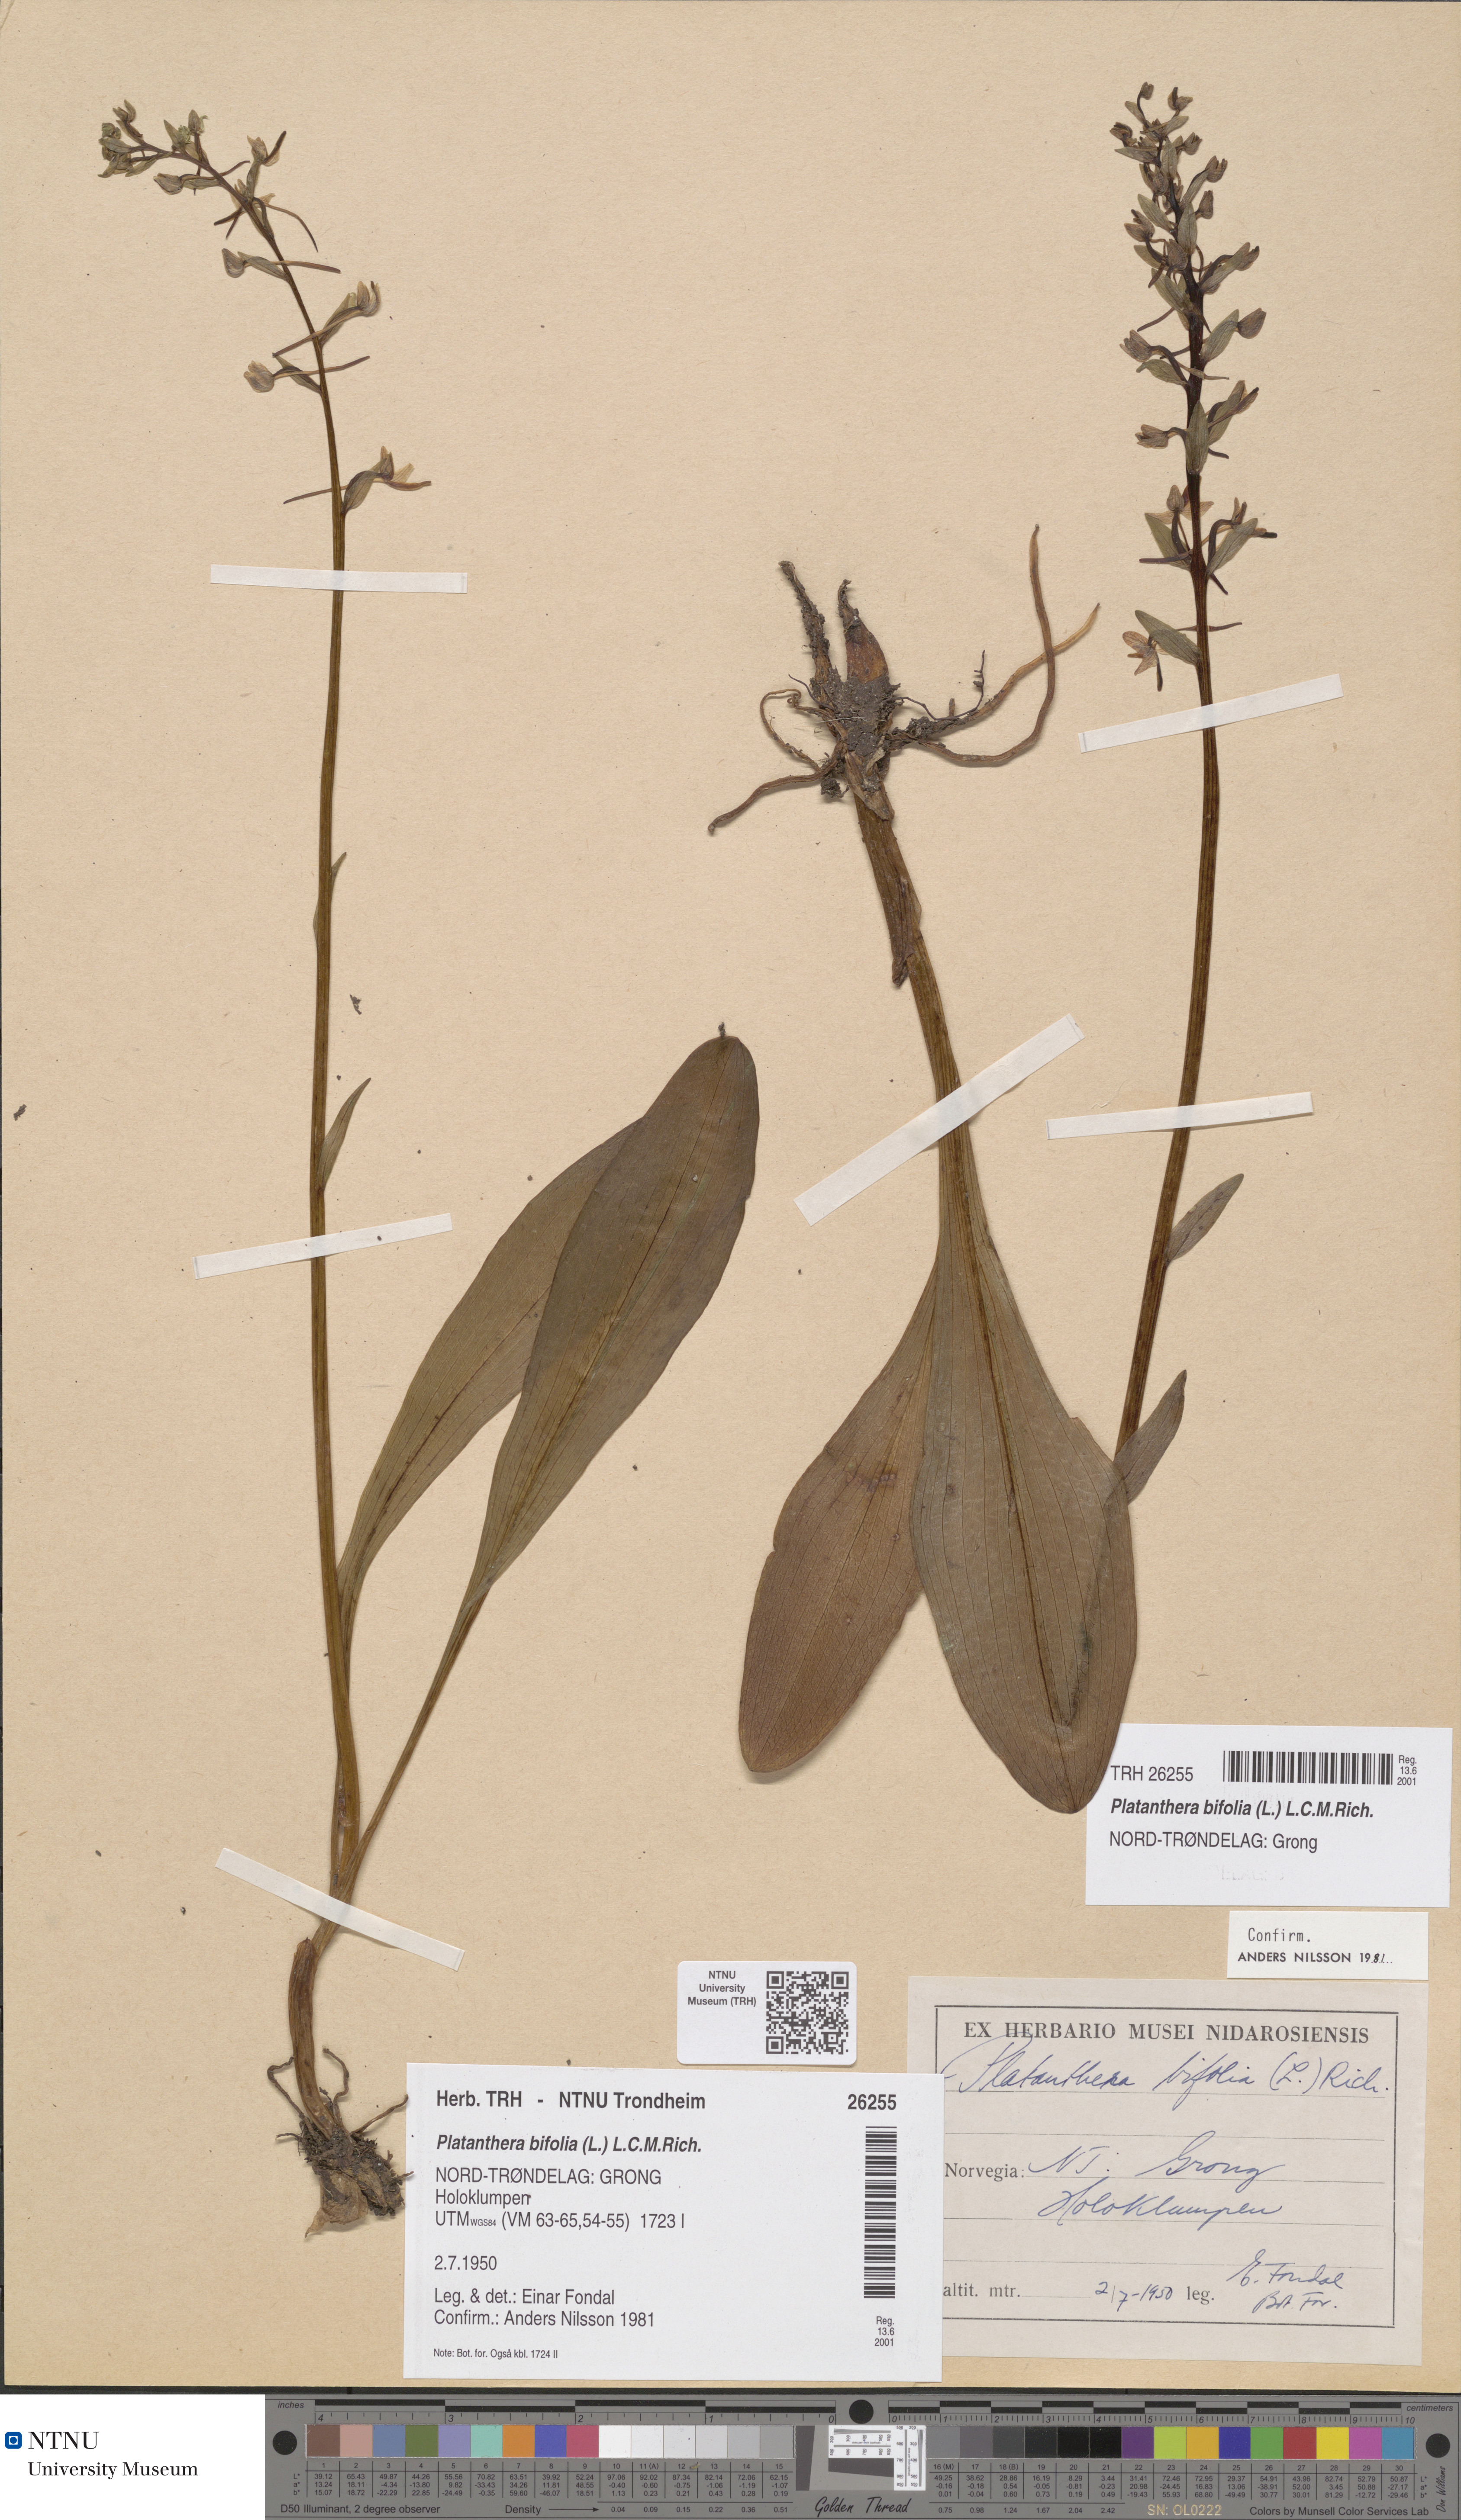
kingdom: Plantae
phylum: Tracheophyta
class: Liliopsida
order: Asparagales
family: Orchidaceae
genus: Platanthera
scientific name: Platanthera bifolia
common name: Lesser butterfly-orchid
